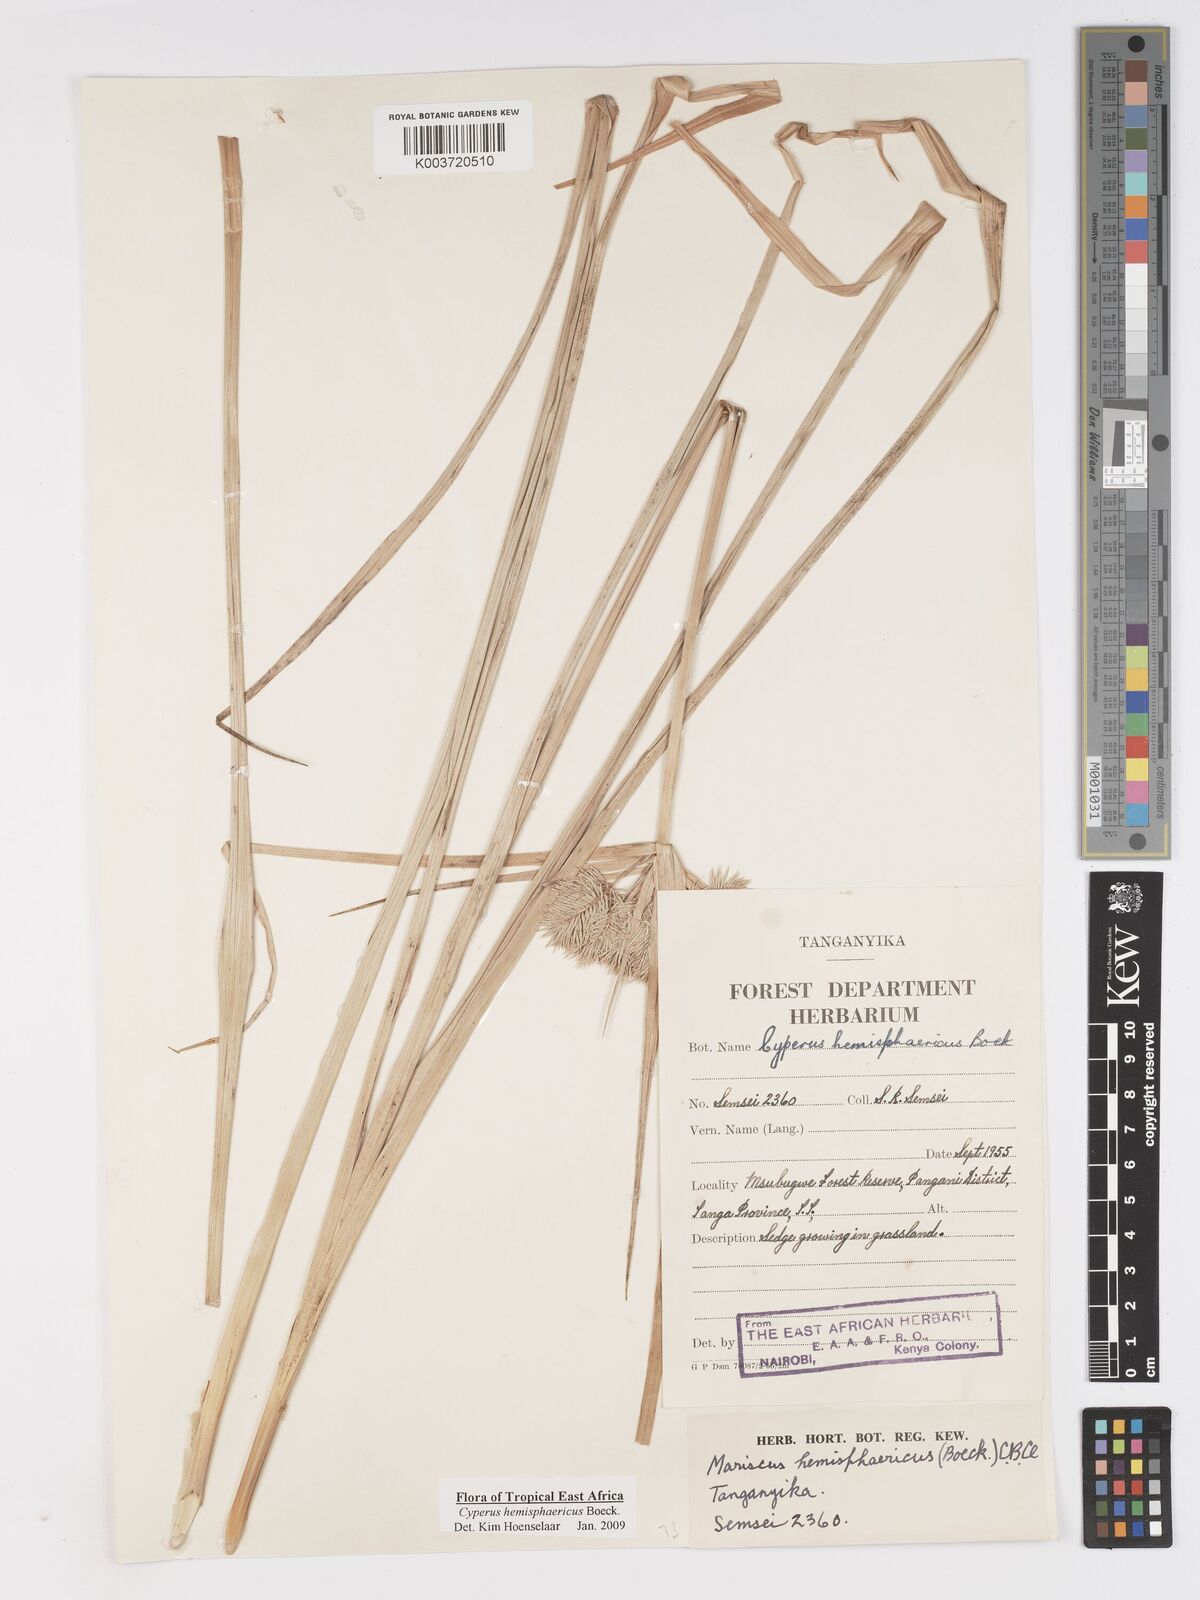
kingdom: Plantae
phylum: Tracheophyta
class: Liliopsida
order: Poales
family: Cyperaceae
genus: Cyperus
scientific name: Cyperus hemisphaericus
